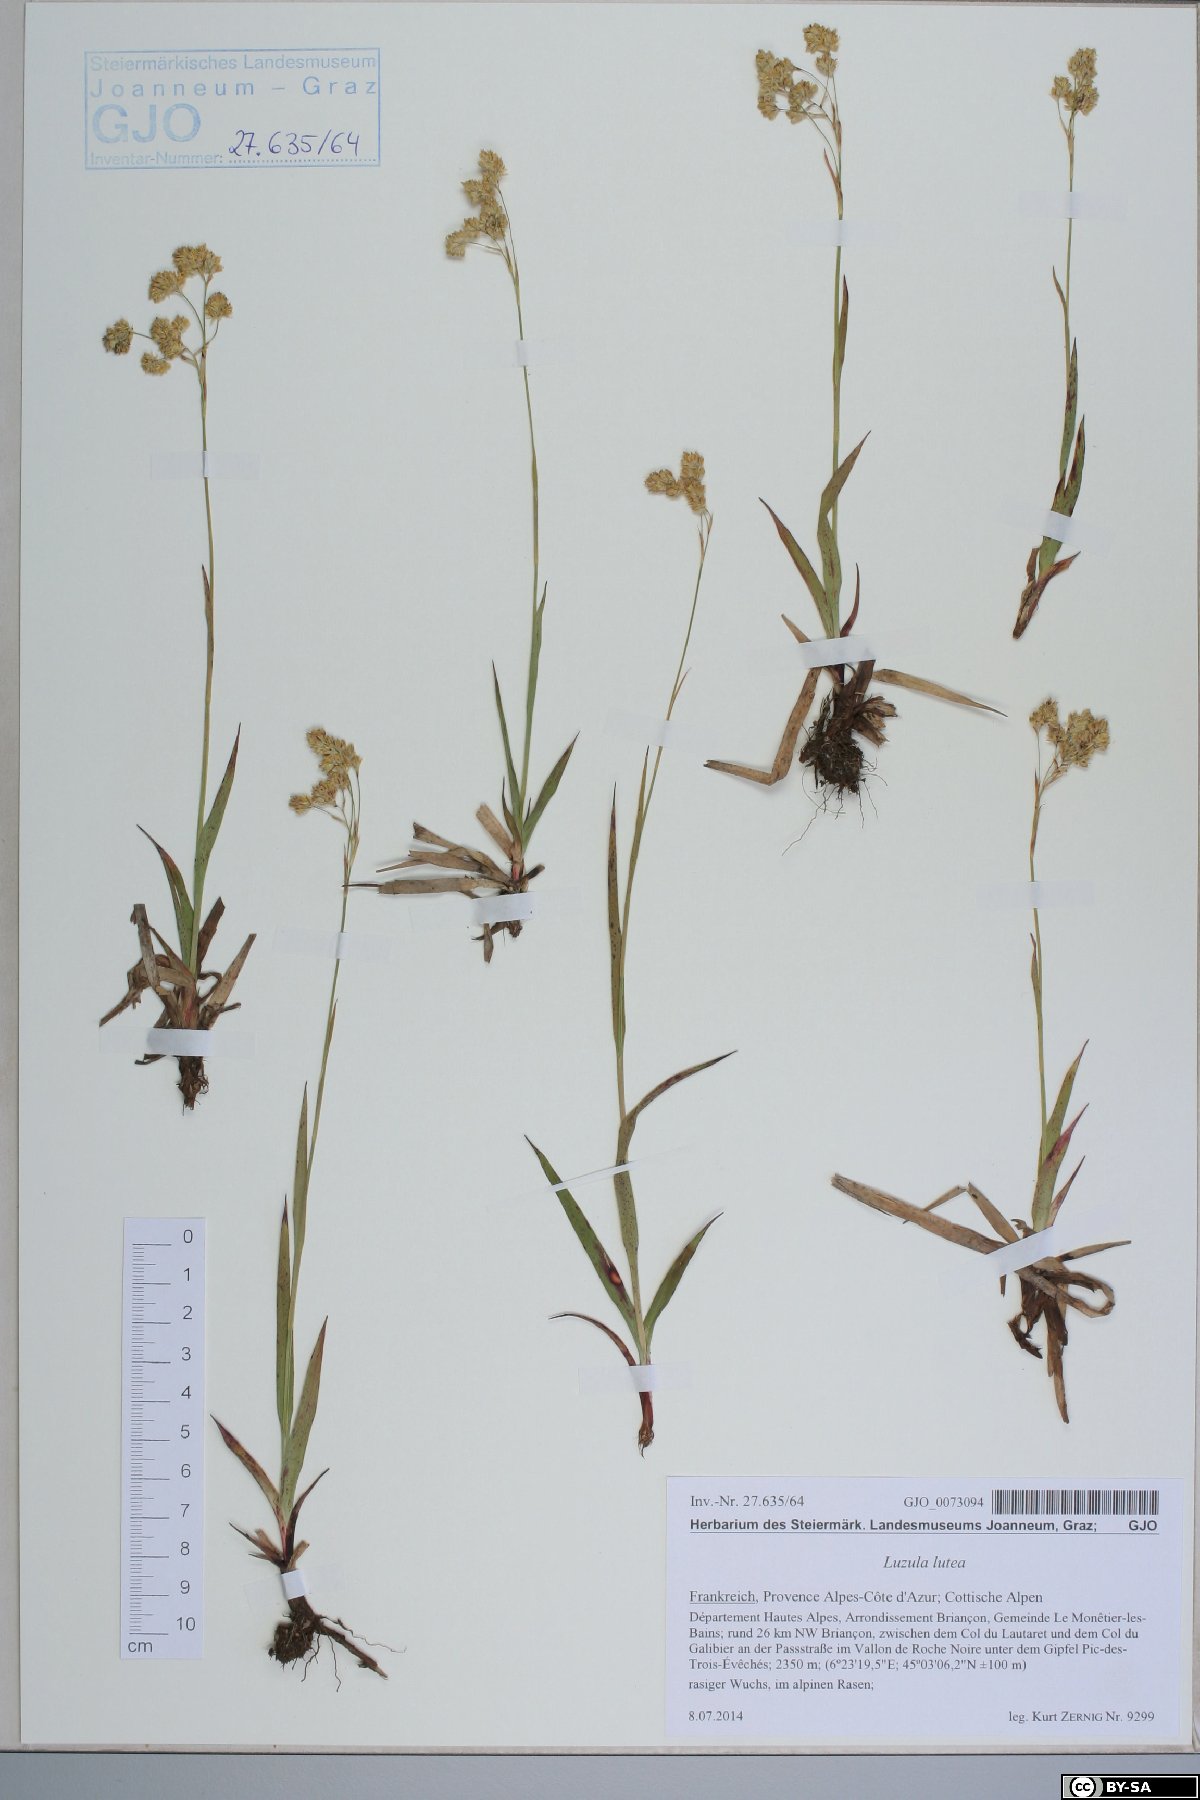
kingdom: Plantae
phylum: Tracheophyta
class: Liliopsida
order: Poales
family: Juncaceae
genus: Luzula
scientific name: Luzula lutea
